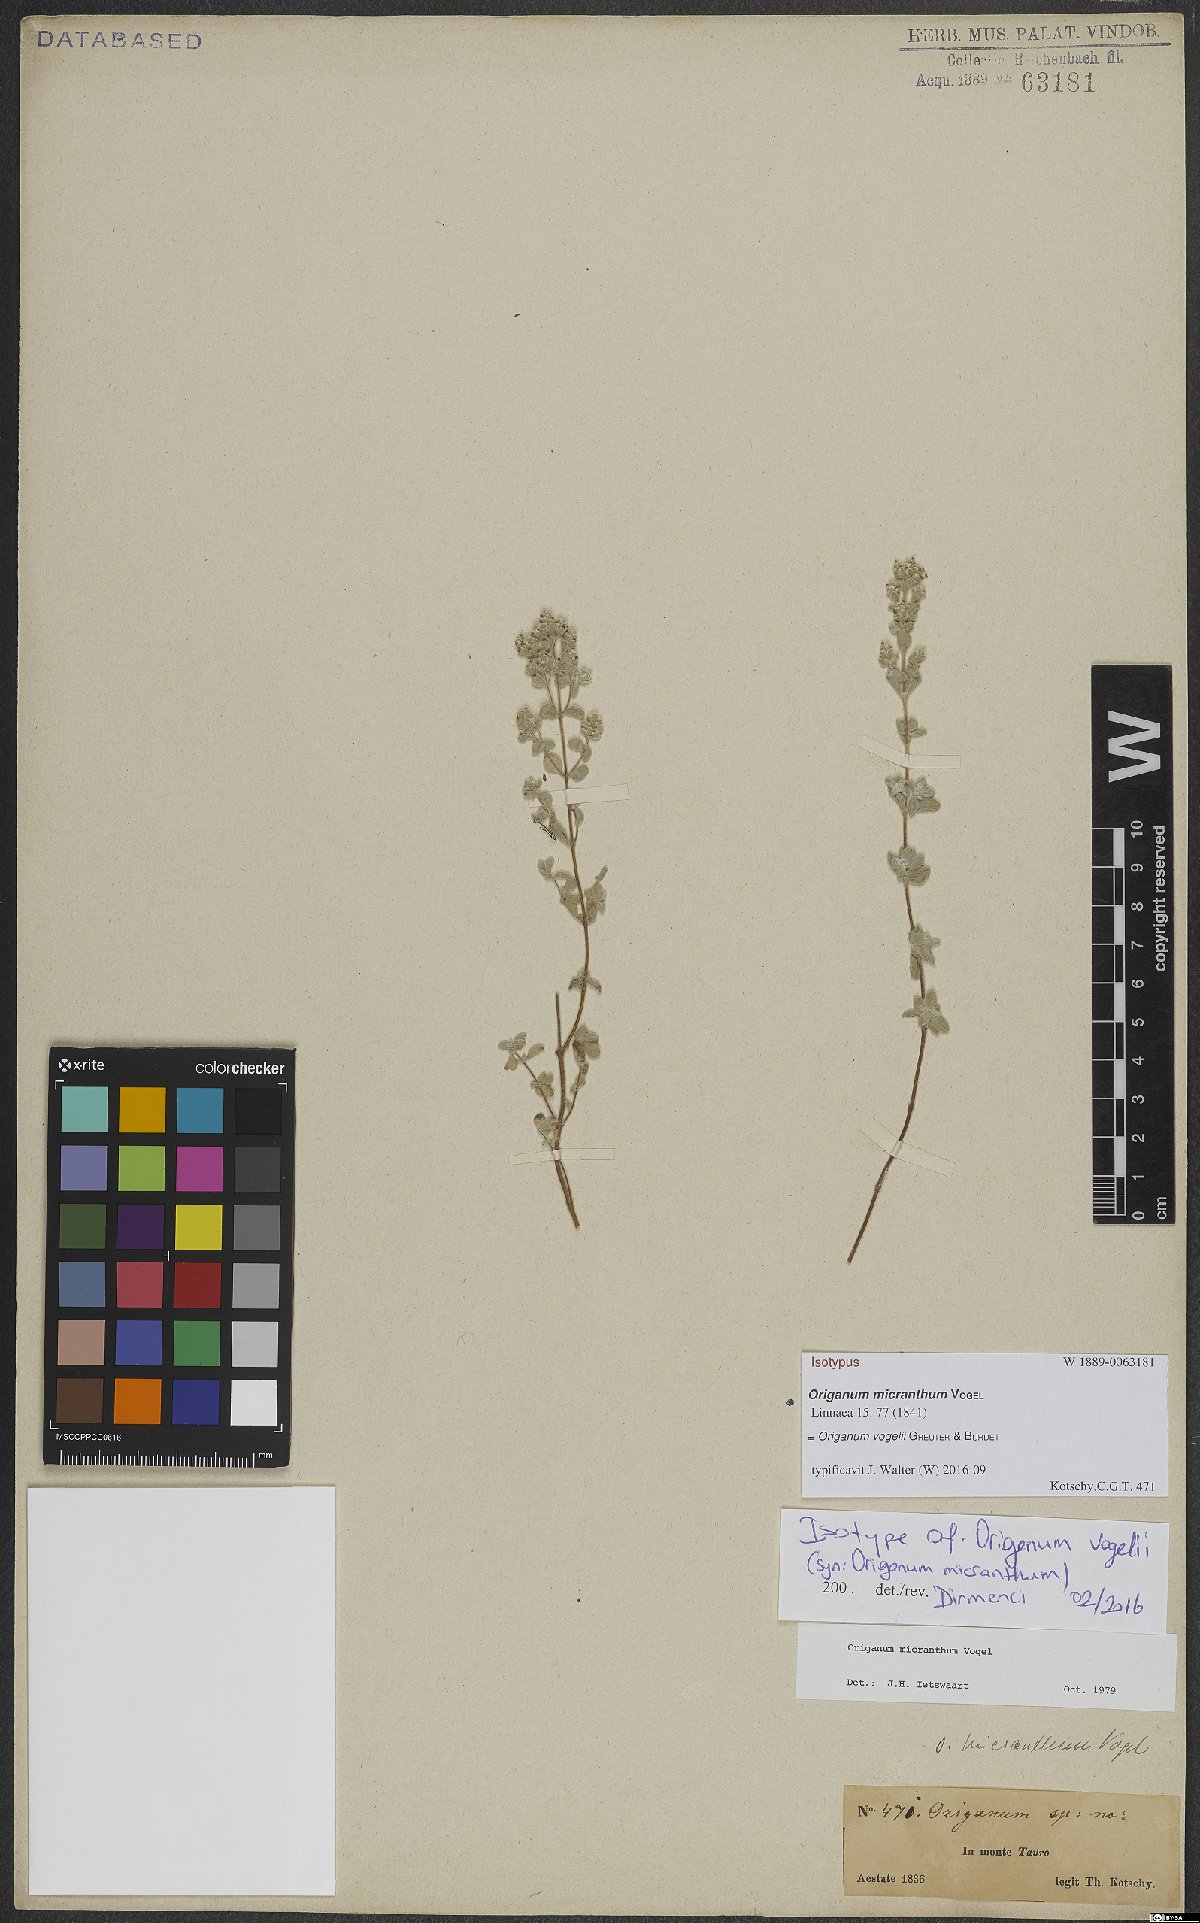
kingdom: Plantae
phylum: Tracheophyta
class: Magnoliopsida
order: Lamiales
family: Lamiaceae
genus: Origanum
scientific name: Origanum vogelii
